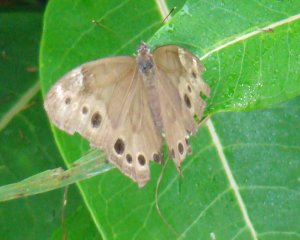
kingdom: Animalia
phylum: Arthropoda
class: Insecta
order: Lepidoptera
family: Nymphalidae
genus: Lethe
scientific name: Lethe anthedon
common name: Northern Pearly-Eye
